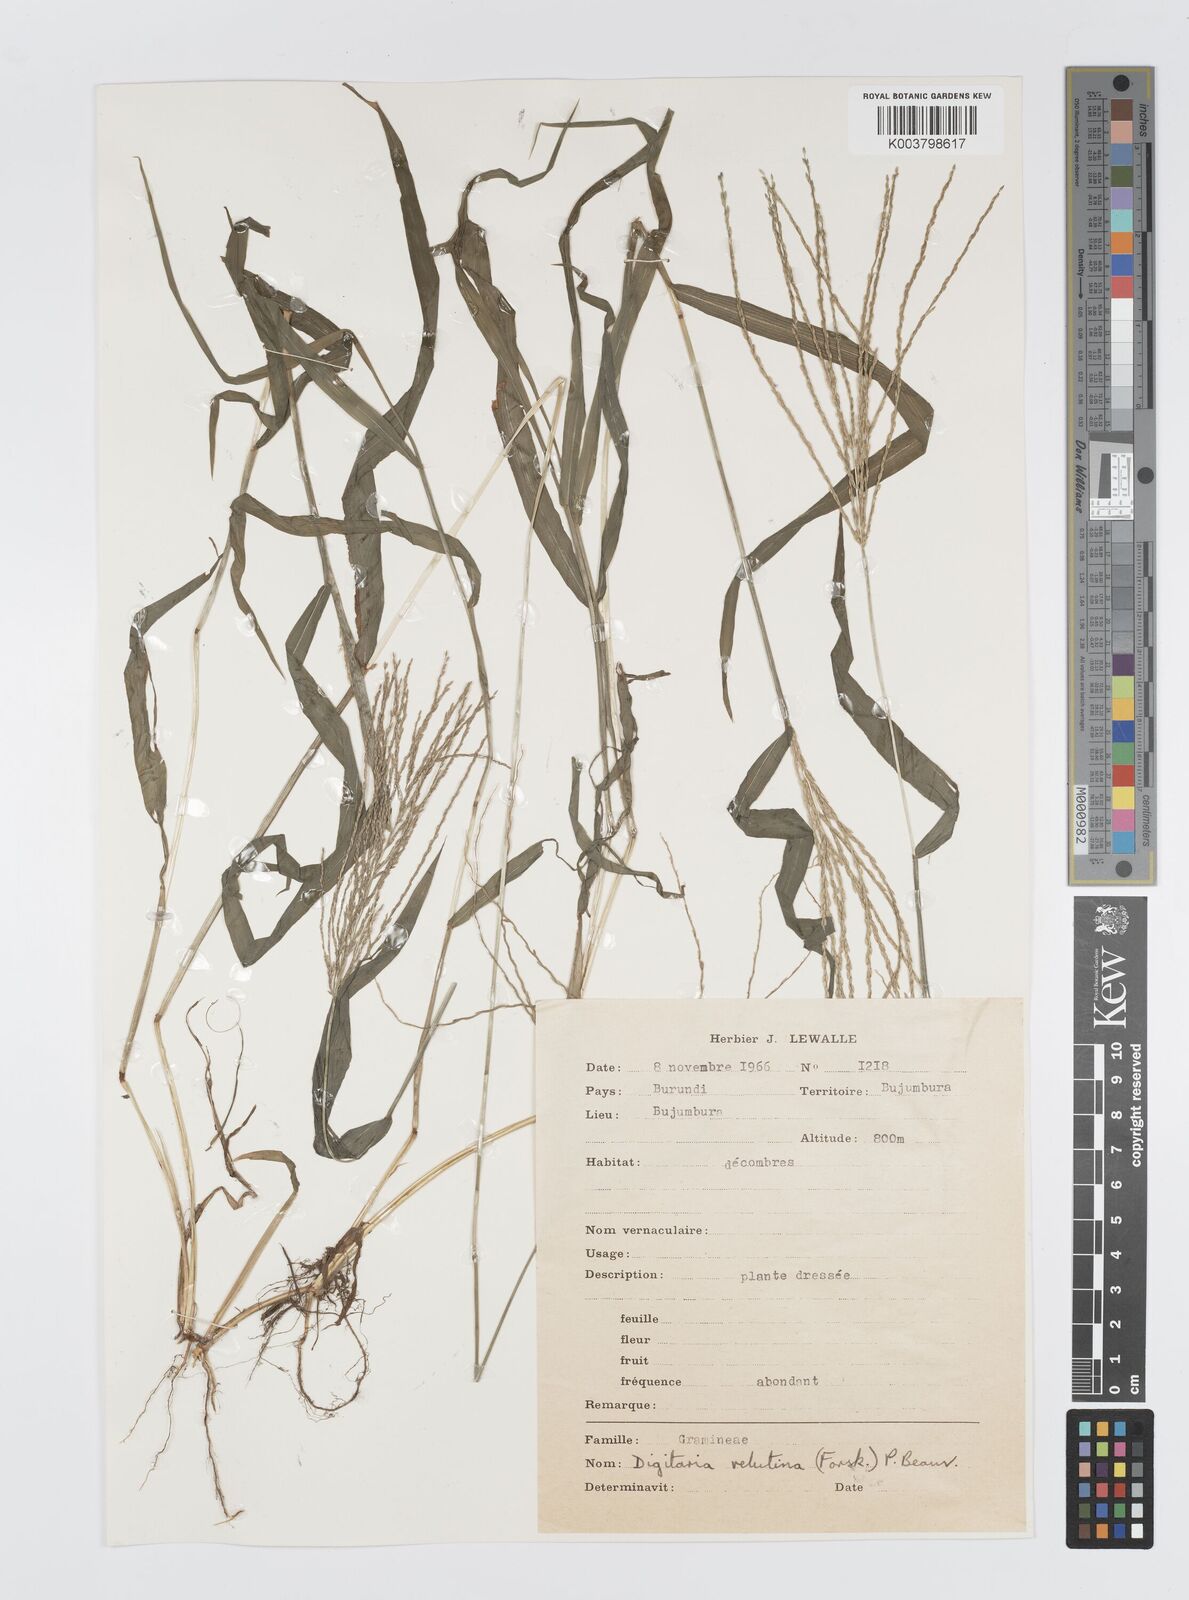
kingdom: Plantae
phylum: Tracheophyta
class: Liliopsida
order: Poales
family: Poaceae
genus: Digitaria
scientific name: Digitaria velutina
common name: Long-plume finger grass
